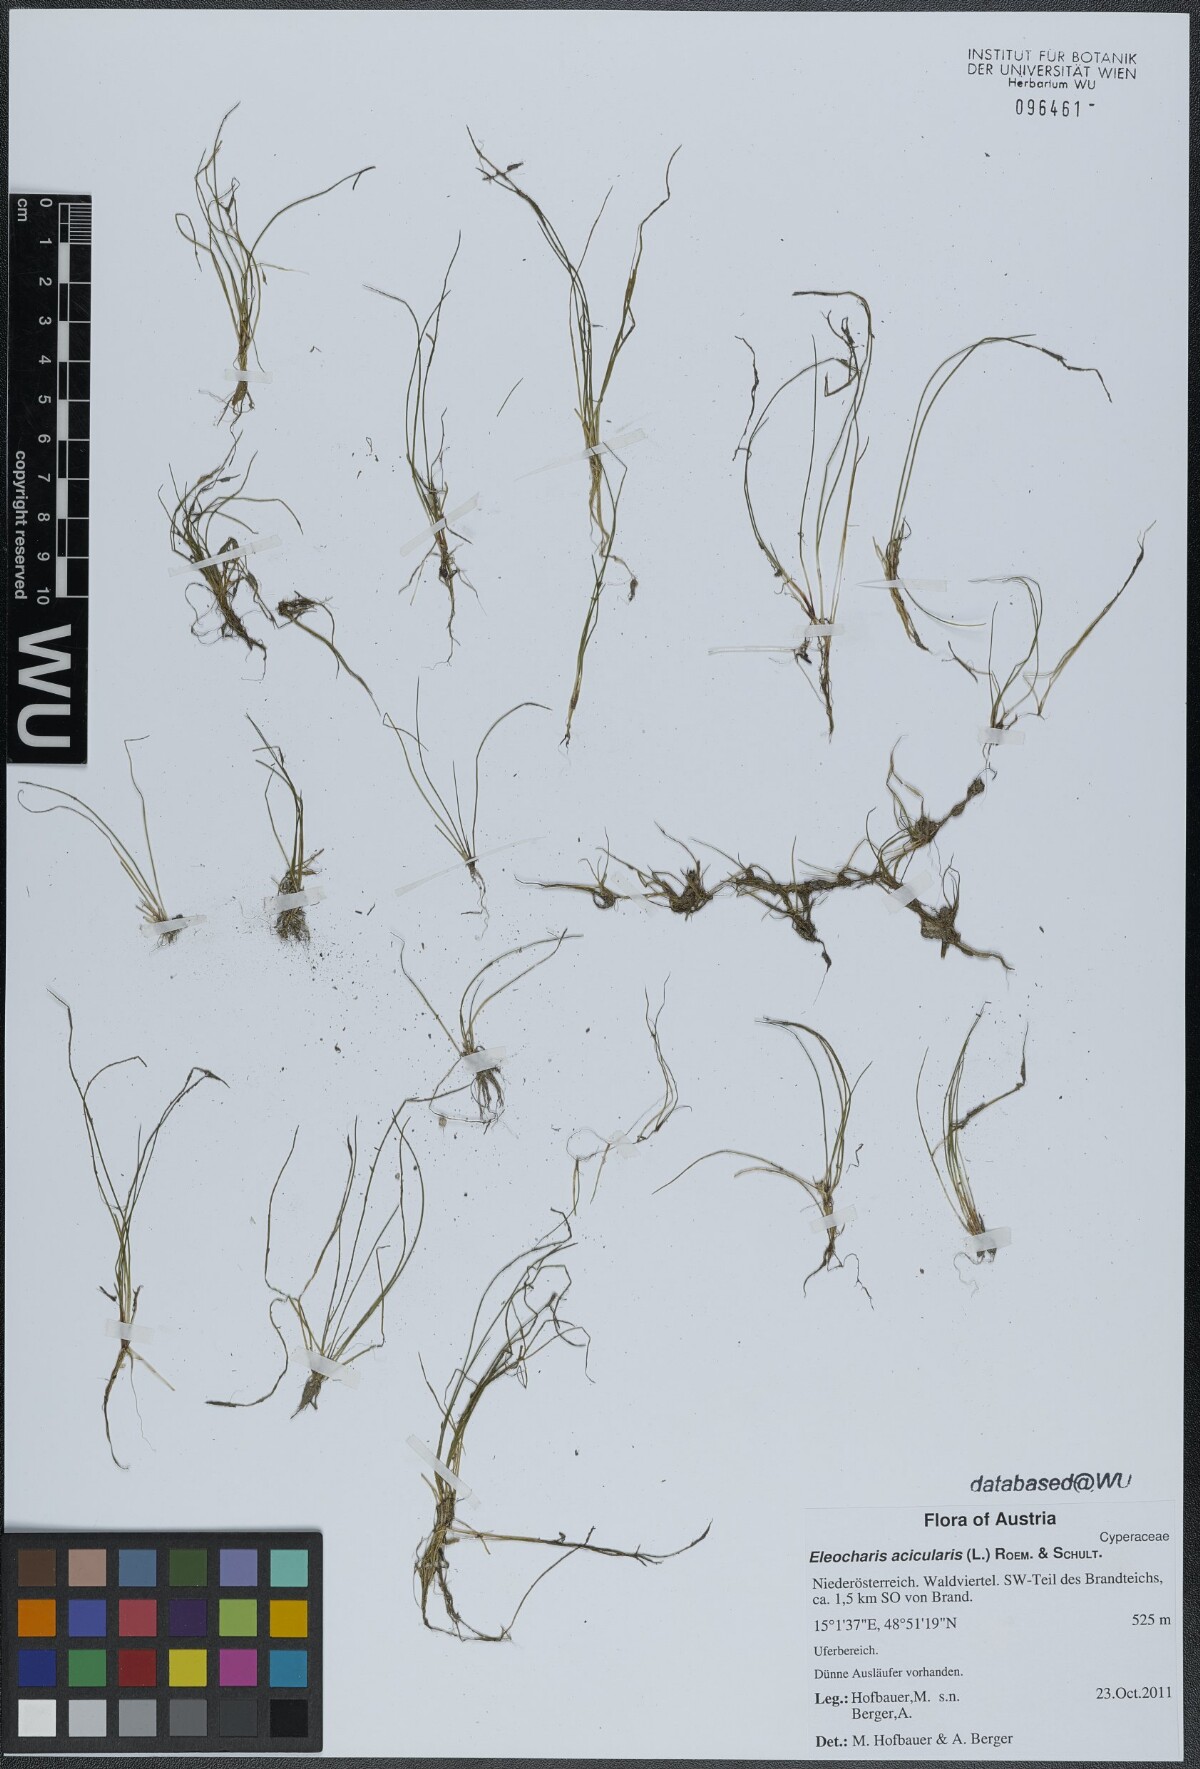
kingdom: Plantae
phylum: Tracheophyta
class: Liliopsida
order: Poales
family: Cyperaceae
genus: Eleocharis
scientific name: Eleocharis acicularis
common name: Needle spike-rush
